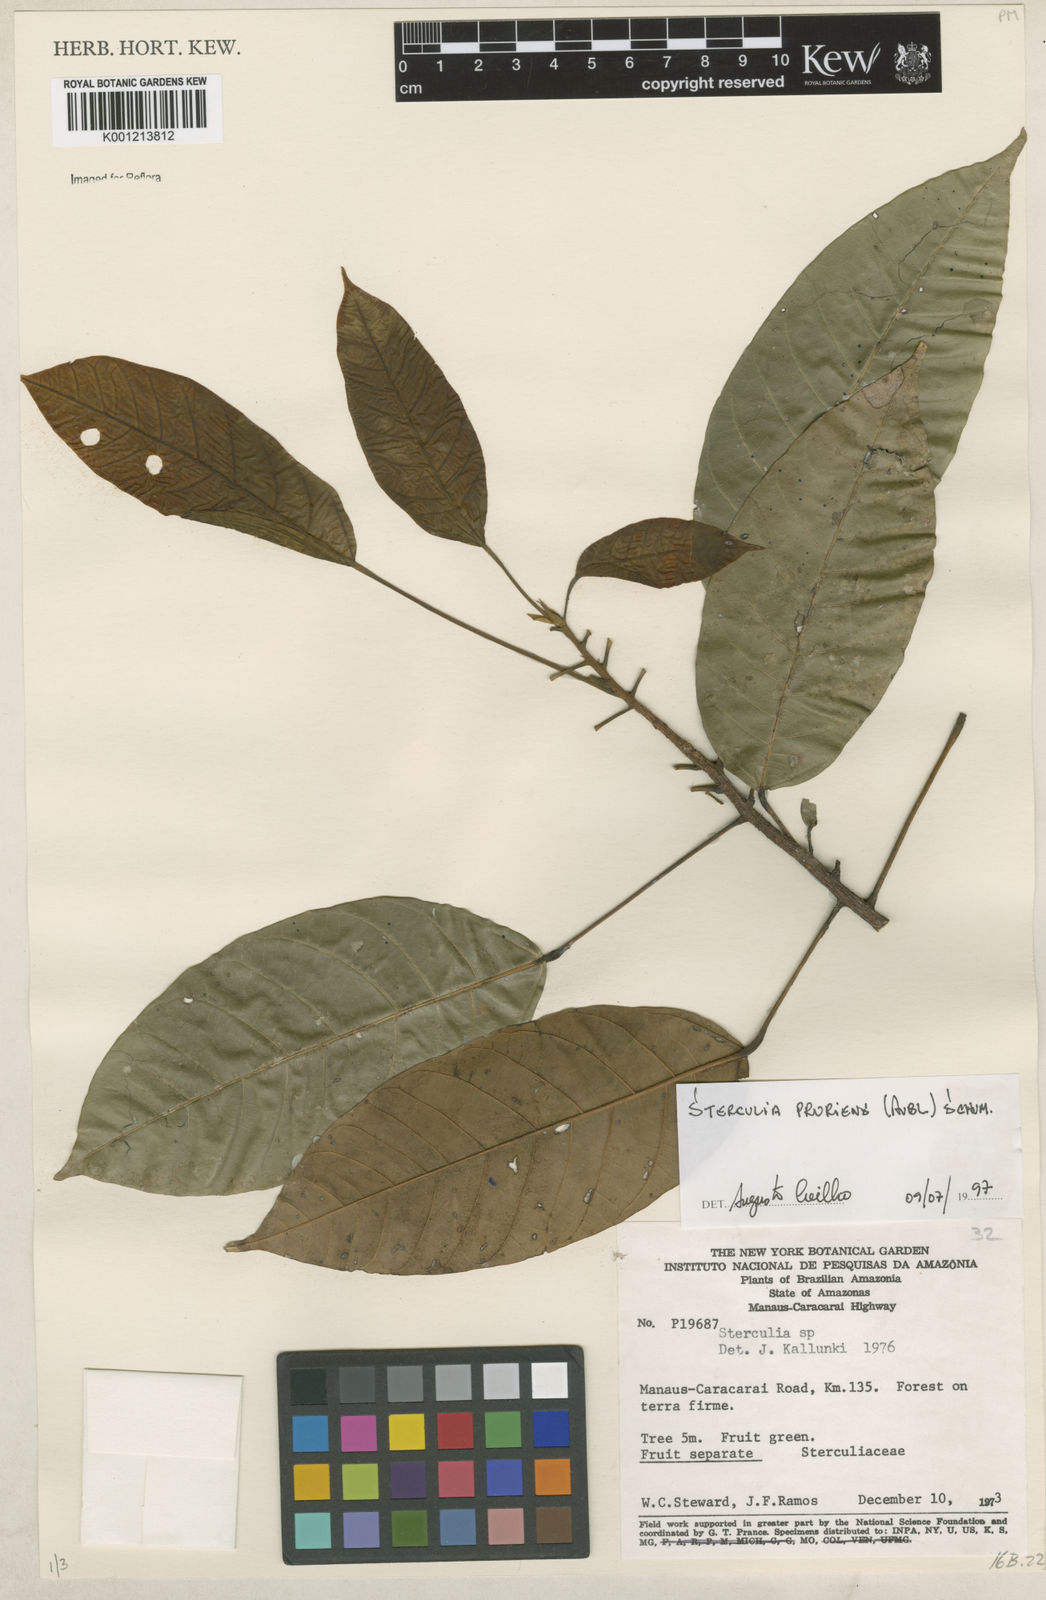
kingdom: Plantae
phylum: Tracheophyta
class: Magnoliopsida
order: Malvales
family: Malvaceae
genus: Sterculia
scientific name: Sterculia pruriens
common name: Grand mahot
